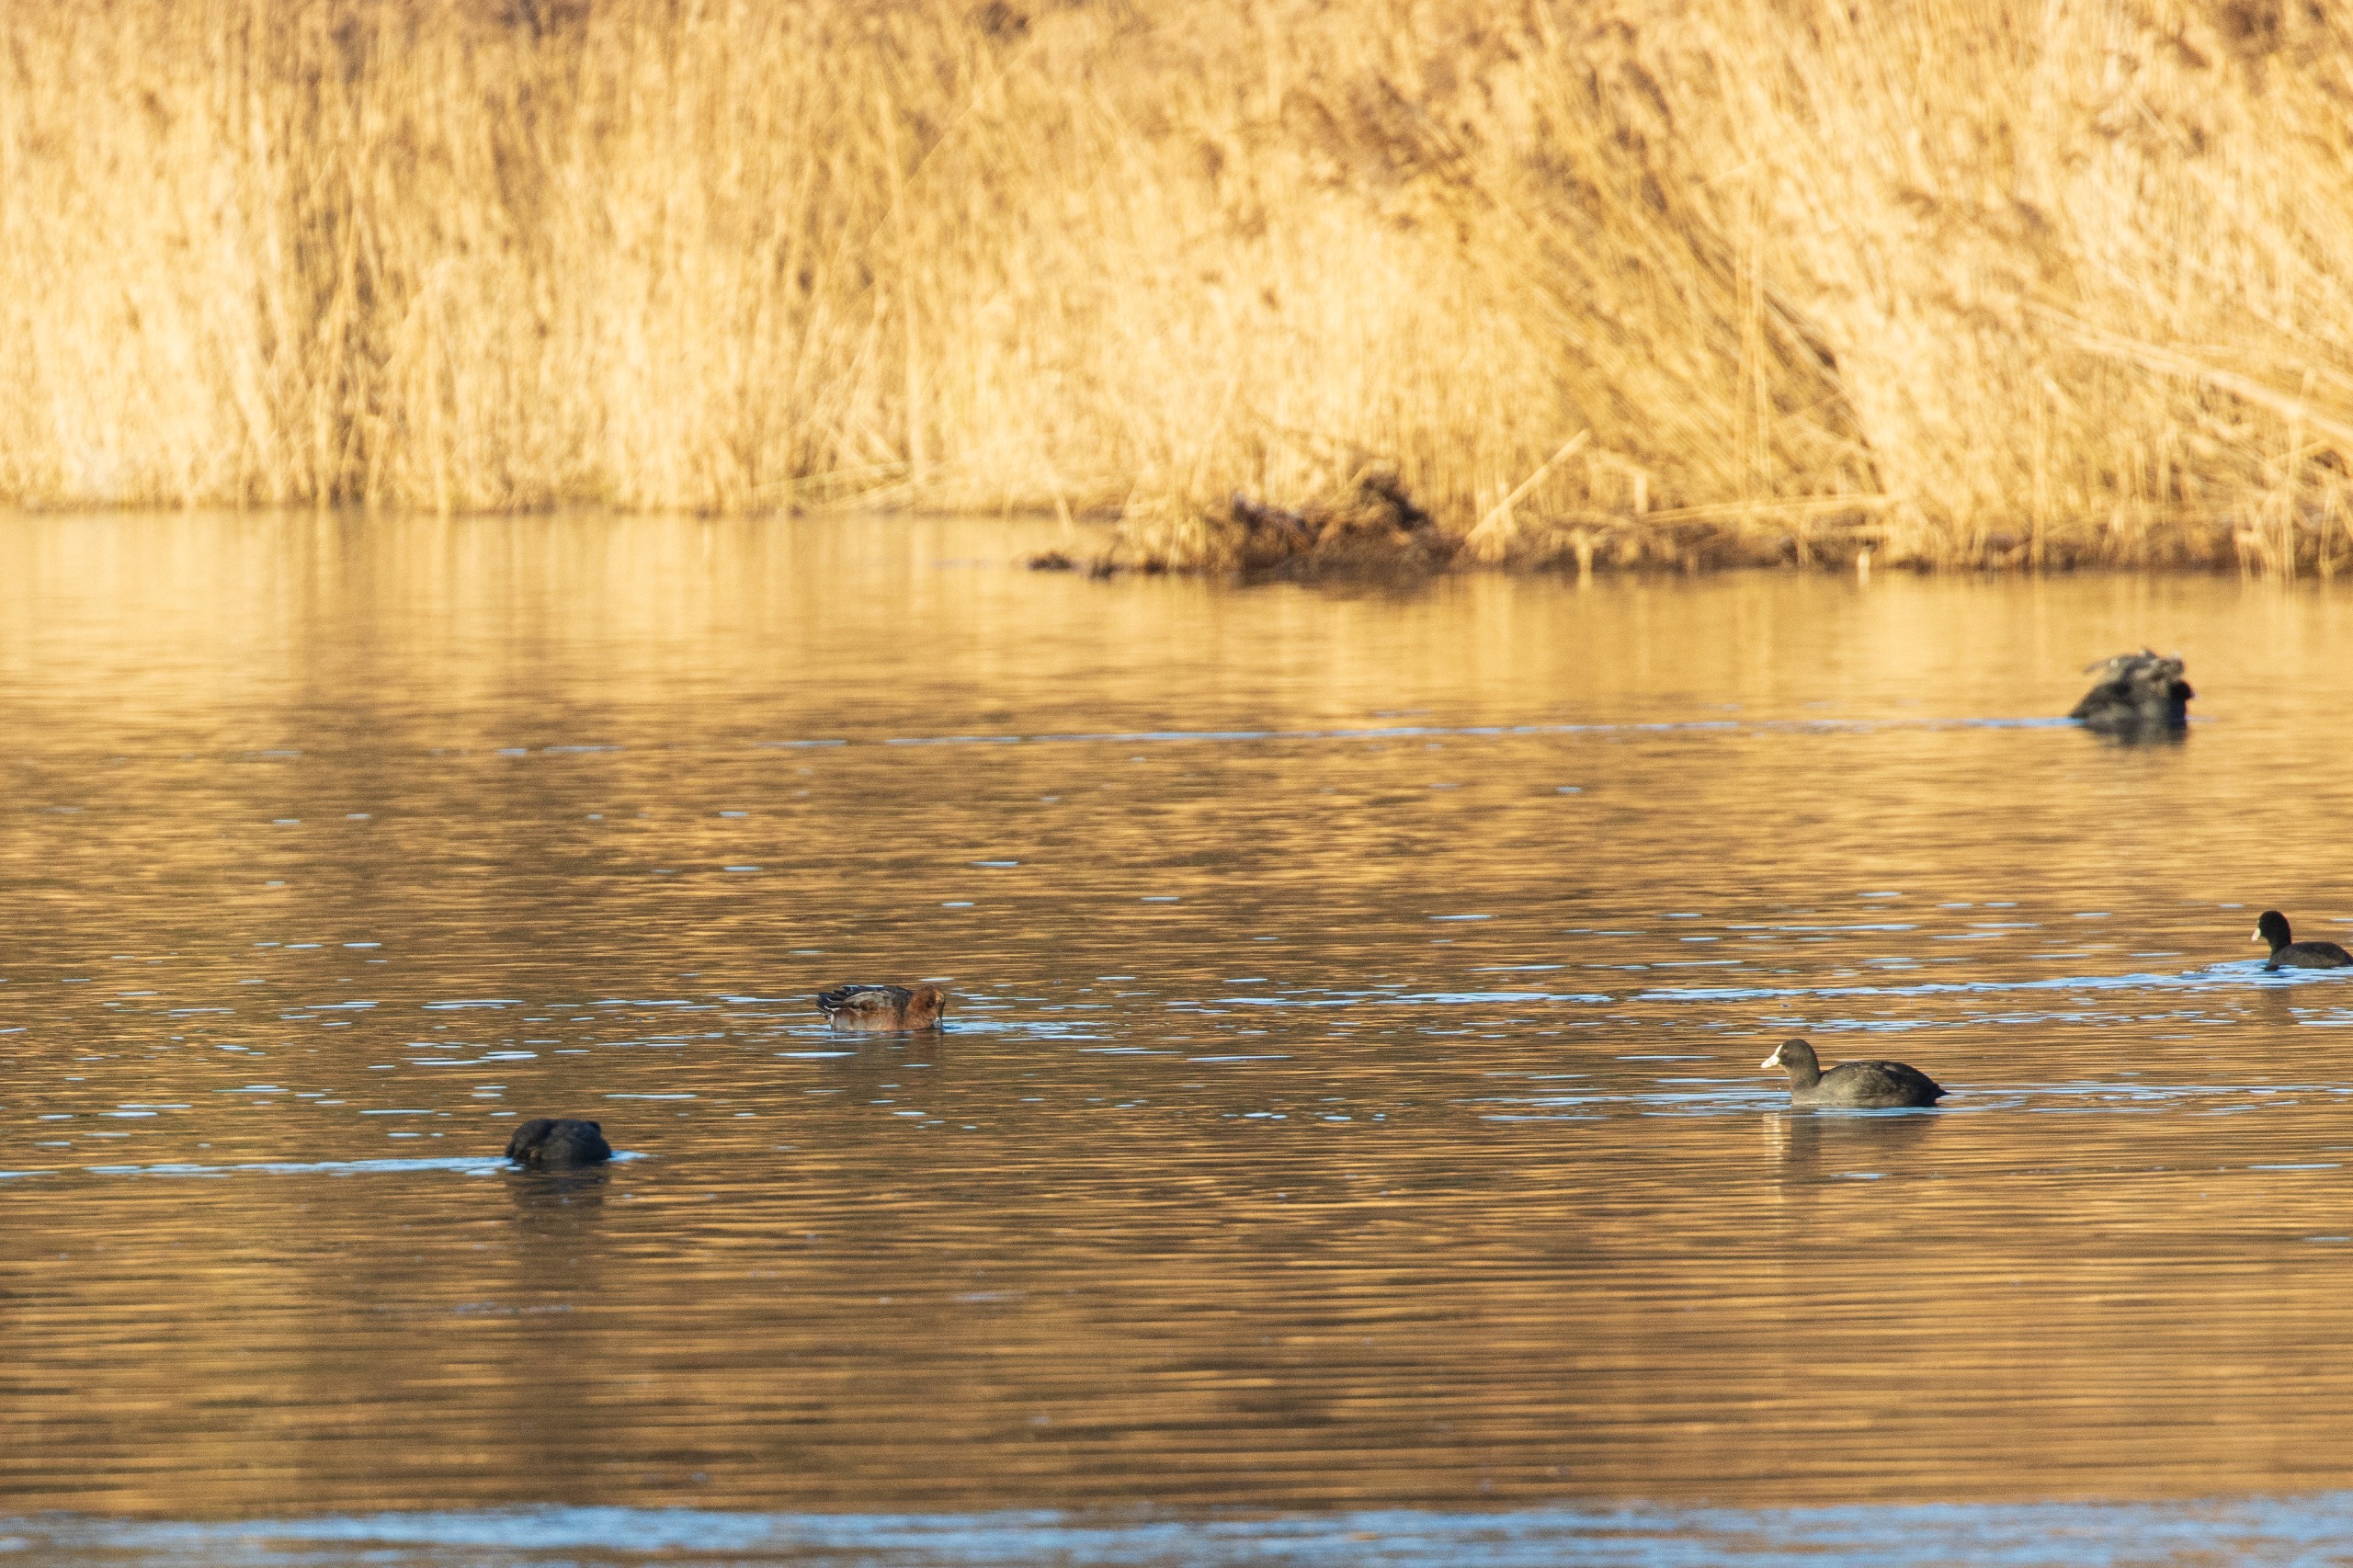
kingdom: Animalia
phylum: Chordata
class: Aves
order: Anseriformes
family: Anatidae
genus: Mareca
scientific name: Mareca penelope
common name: Pibeand
